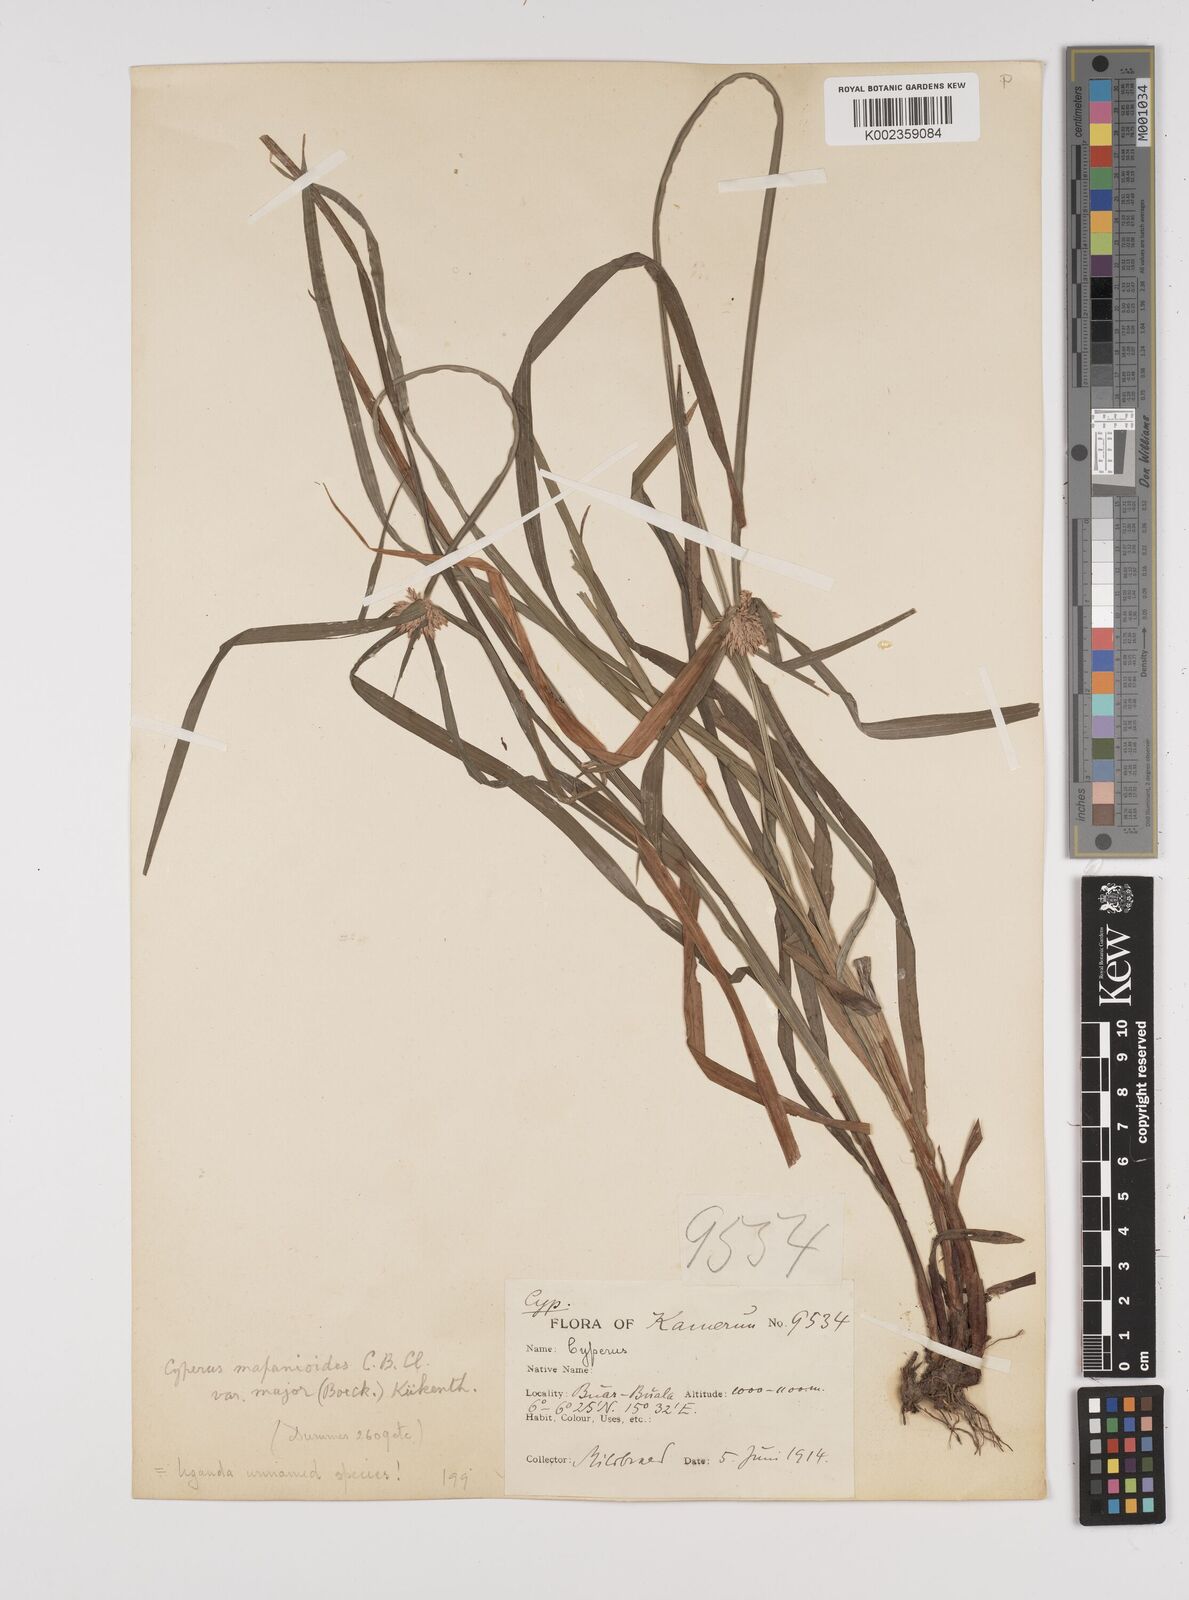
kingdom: Plantae
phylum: Tracheophyta
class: Liliopsida
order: Poales
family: Cyperaceae
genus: Cyperus
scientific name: Cyperus mapanioides
